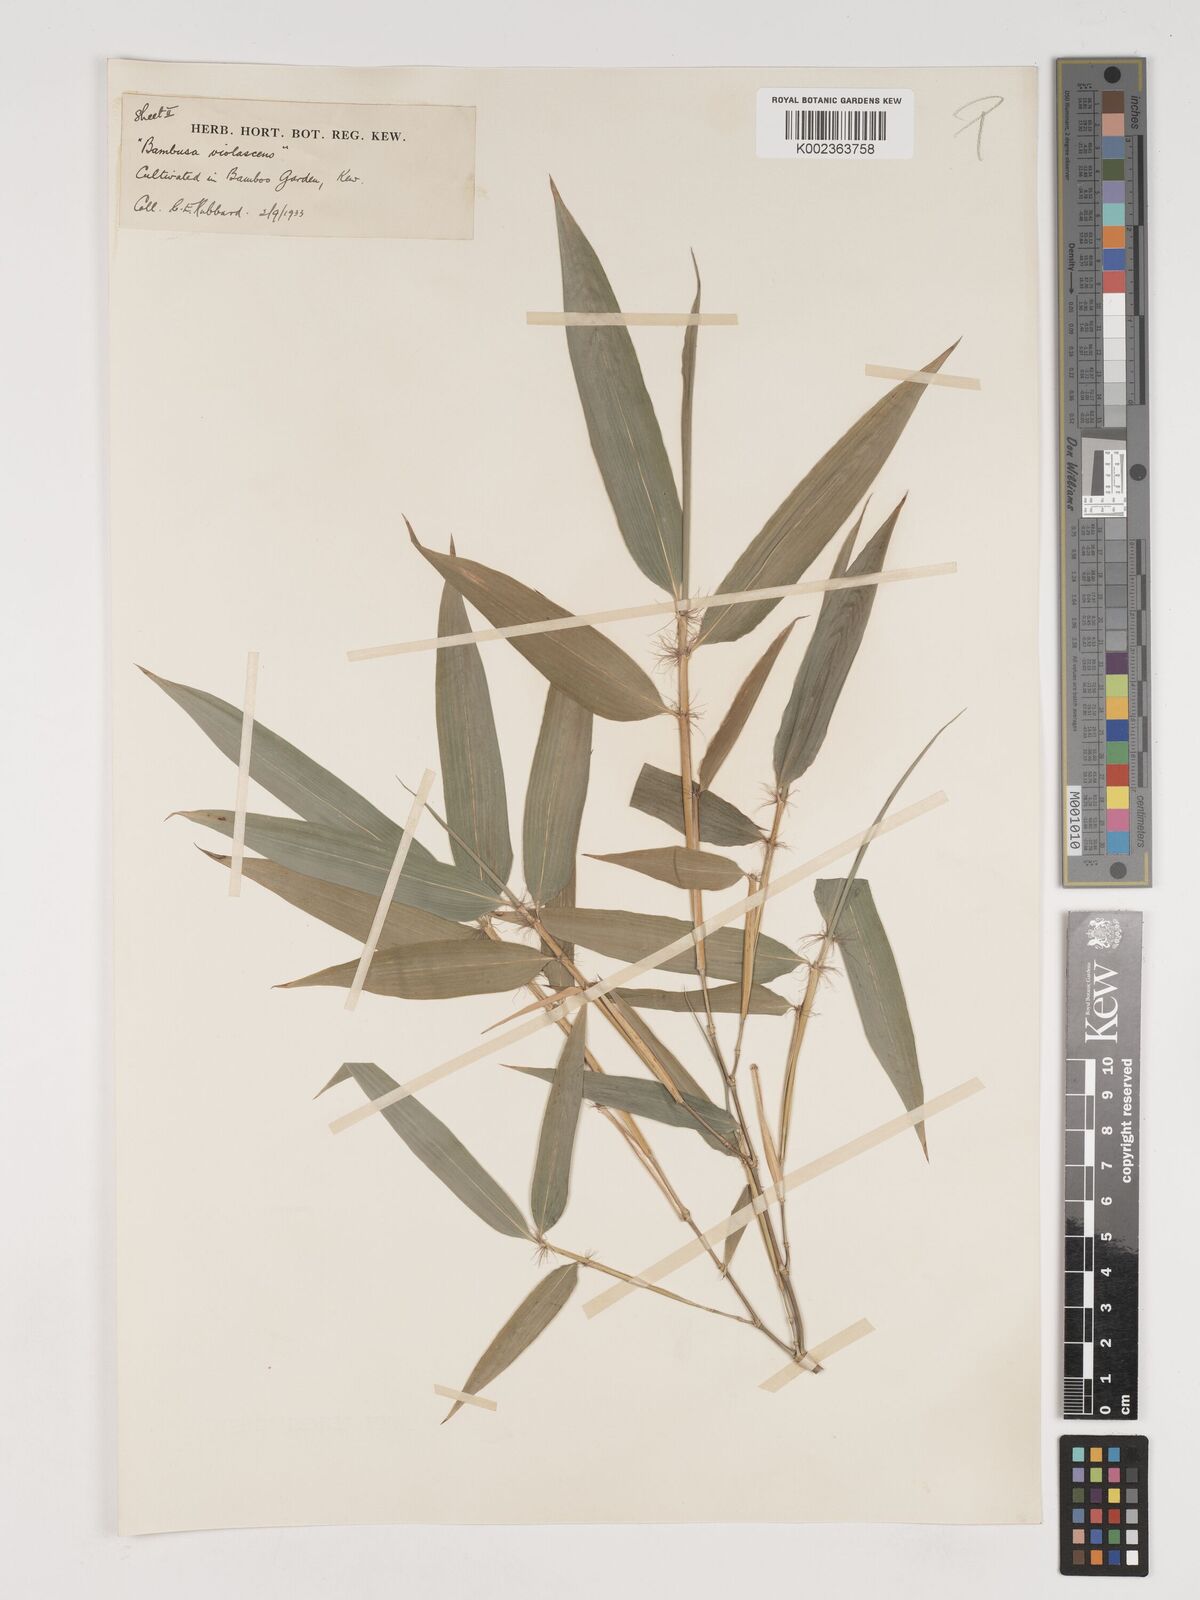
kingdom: Plantae
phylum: Tracheophyta
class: Liliopsida
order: Poales
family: Poaceae
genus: Phyllostachys
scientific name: Phyllostachys reticulata
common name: Bamboo
